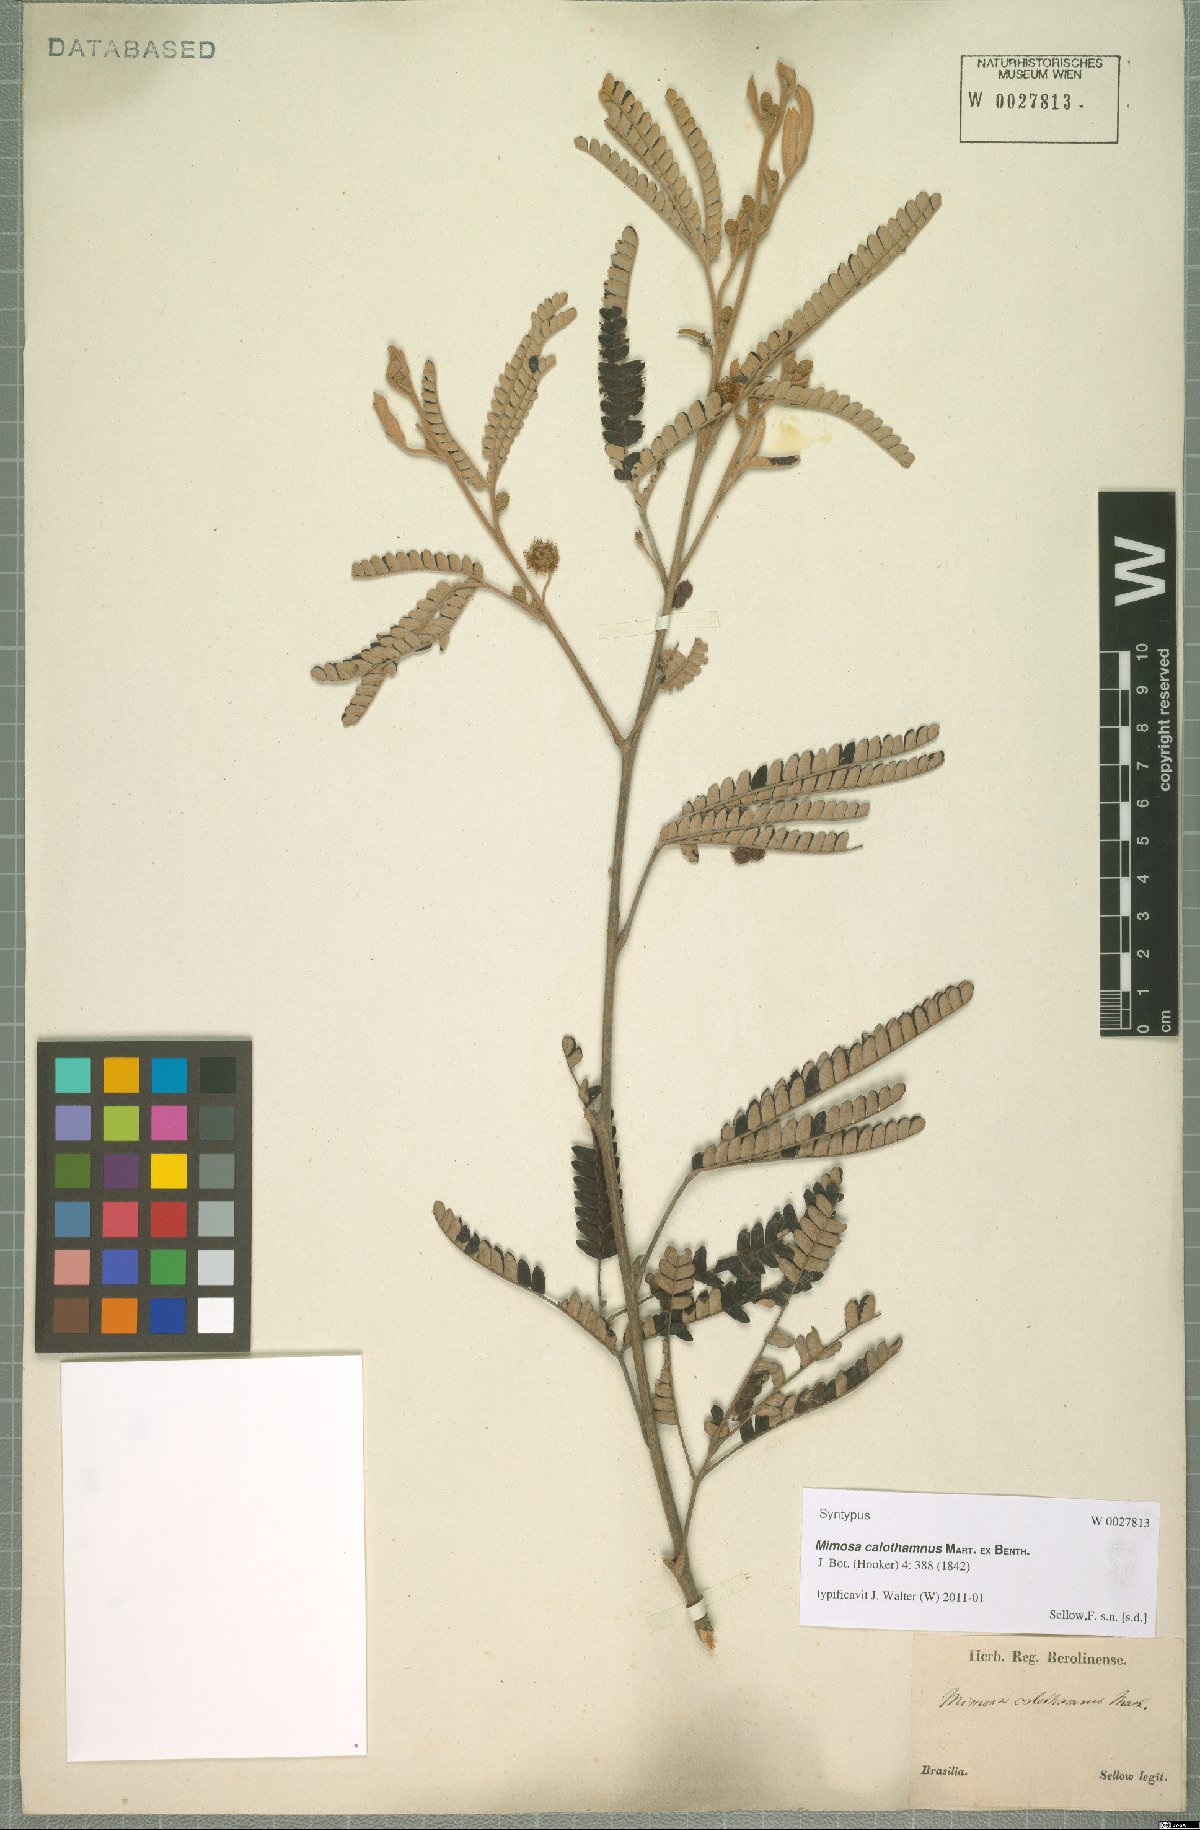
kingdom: Plantae
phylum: Tracheophyta
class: Magnoliopsida
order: Fabales
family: Fabaceae
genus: Mimosa
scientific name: Mimosa calothamnus
